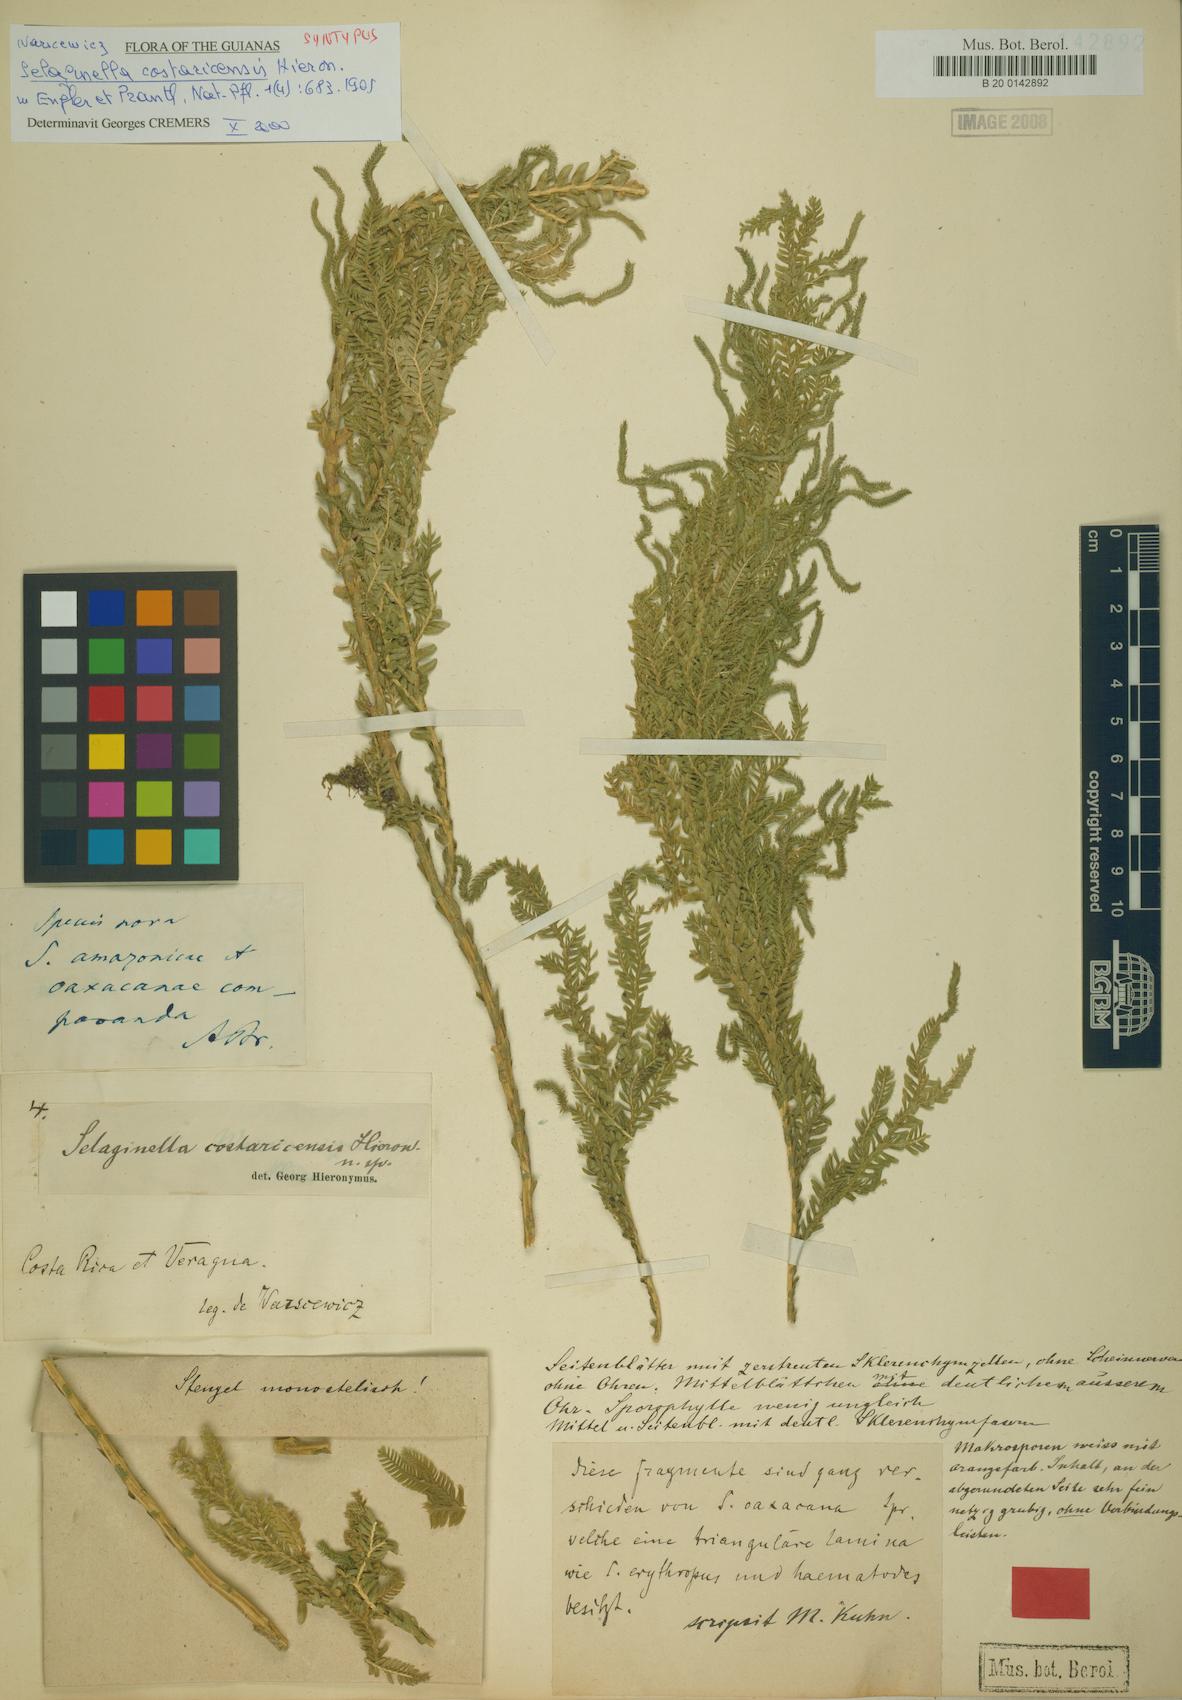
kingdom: Plantae
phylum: Tracheophyta
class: Lycopodiopsida
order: Selaginellales
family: Selaginellaceae
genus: Selaginella
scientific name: Selaginella oaxacana
